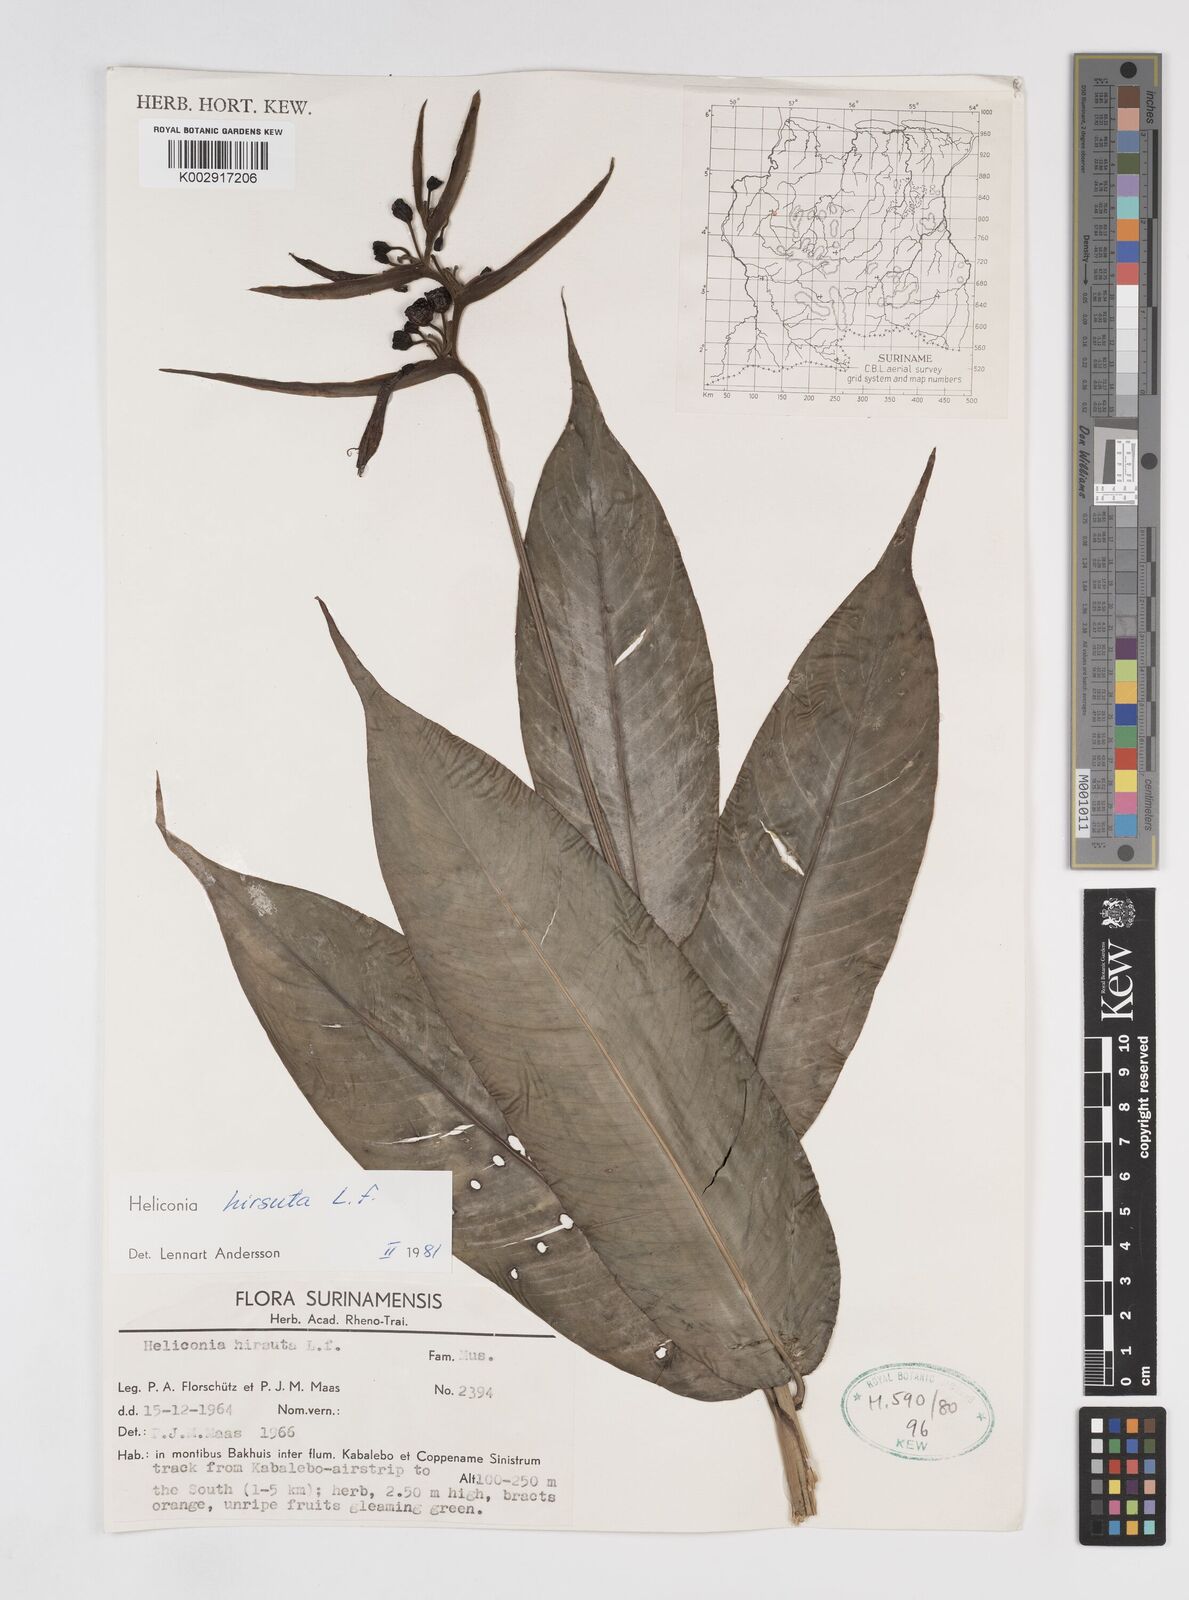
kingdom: Plantae
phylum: Tracheophyta
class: Liliopsida
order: Zingiberales
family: Heliconiaceae
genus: Heliconia
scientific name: Heliconia hirsuta
